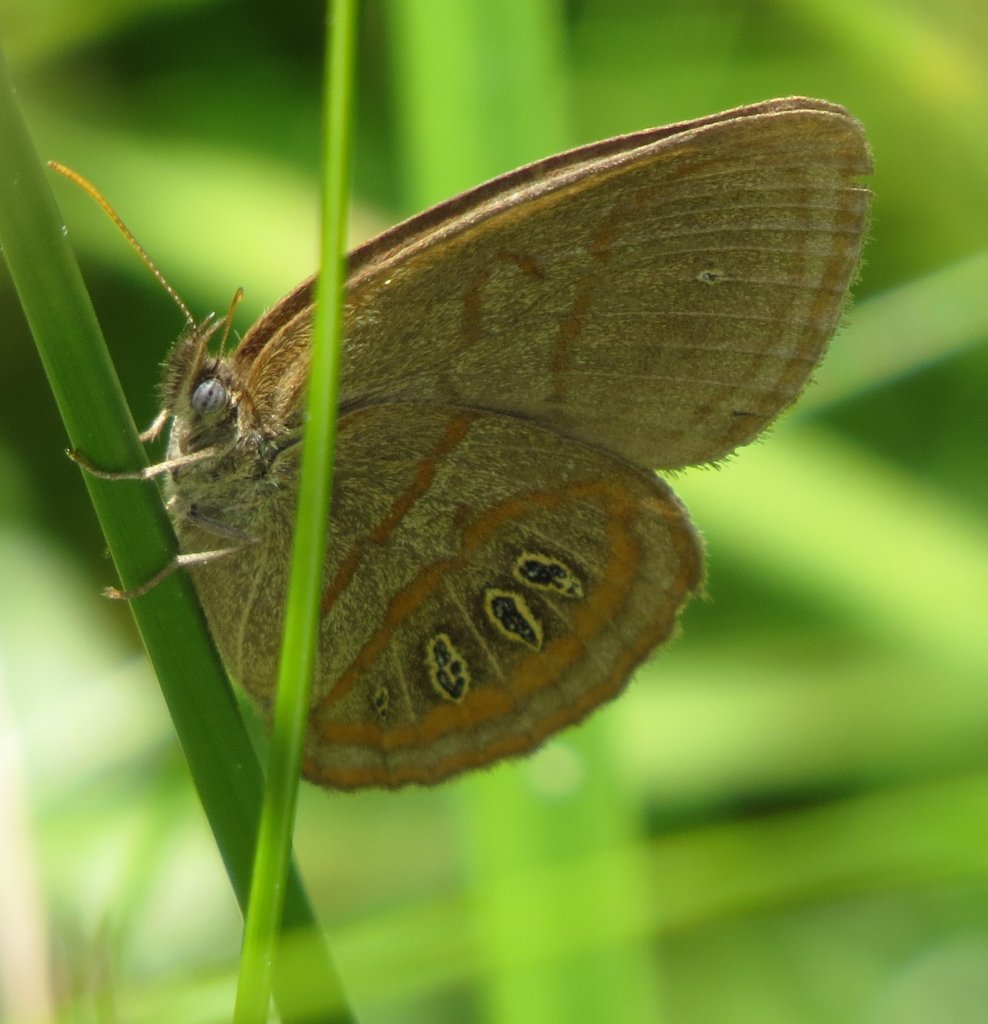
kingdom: Animalia
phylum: Arthropoda
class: Insecta
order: Lepidoptera
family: Nymphalidae
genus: Euptychia
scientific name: Euptychia phocion
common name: Georgia Satyr
